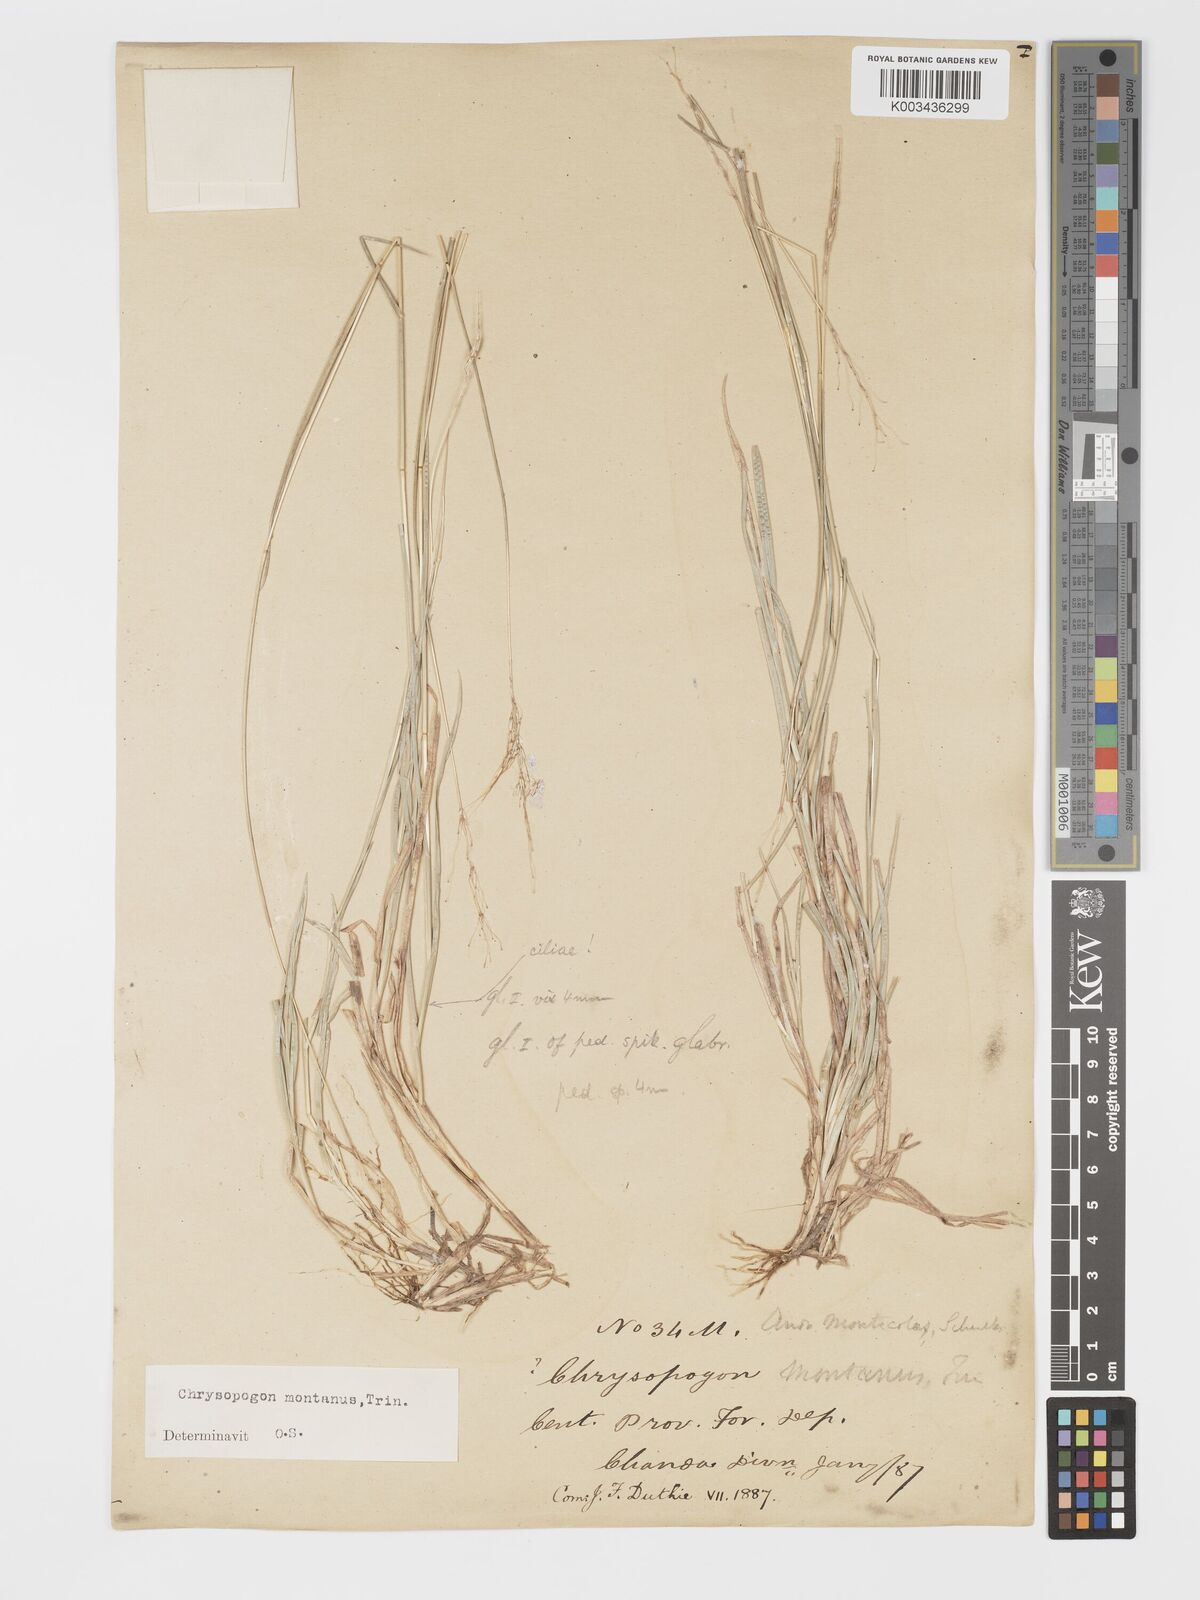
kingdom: Plantae
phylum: Tracheophyta
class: Liliopsida
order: Poales
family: Poaceae
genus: Chrysopogon
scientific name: Chrysopogon fulvus
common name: Red false beardgrass
